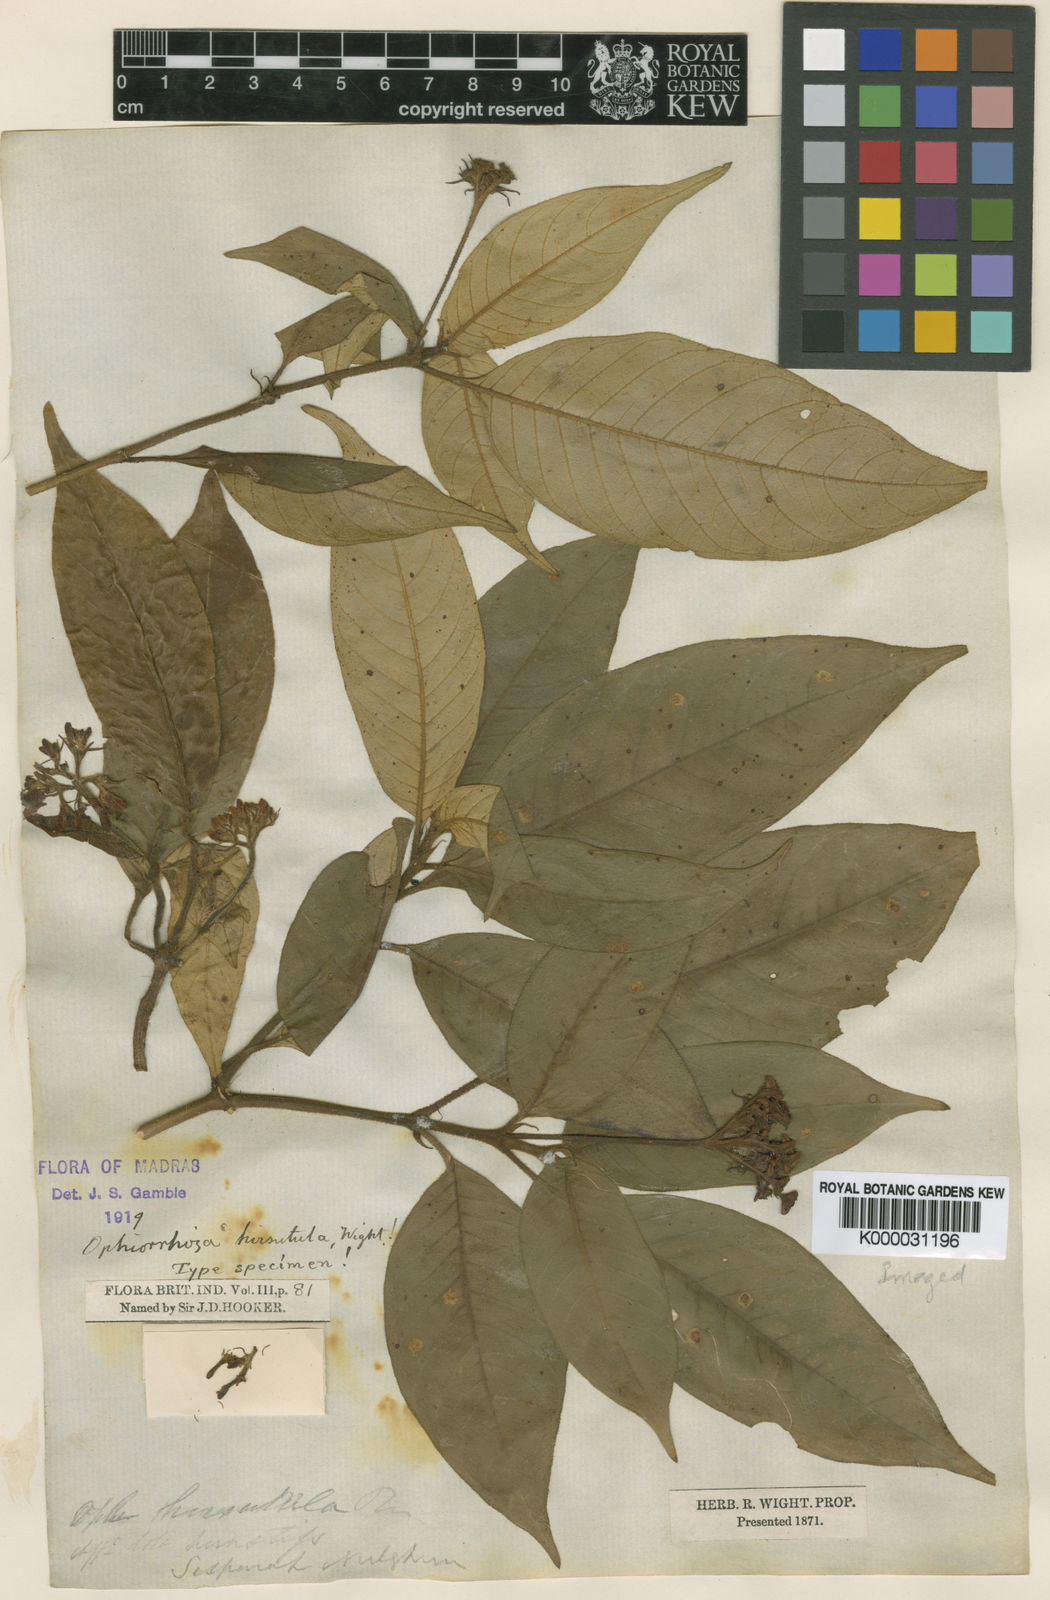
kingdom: Plantae
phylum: Tracheophyta
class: Magnoliopsida
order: Gentianales
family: Rubiaceae
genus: Ophiorrhiza
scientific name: Ophiorrhiza
